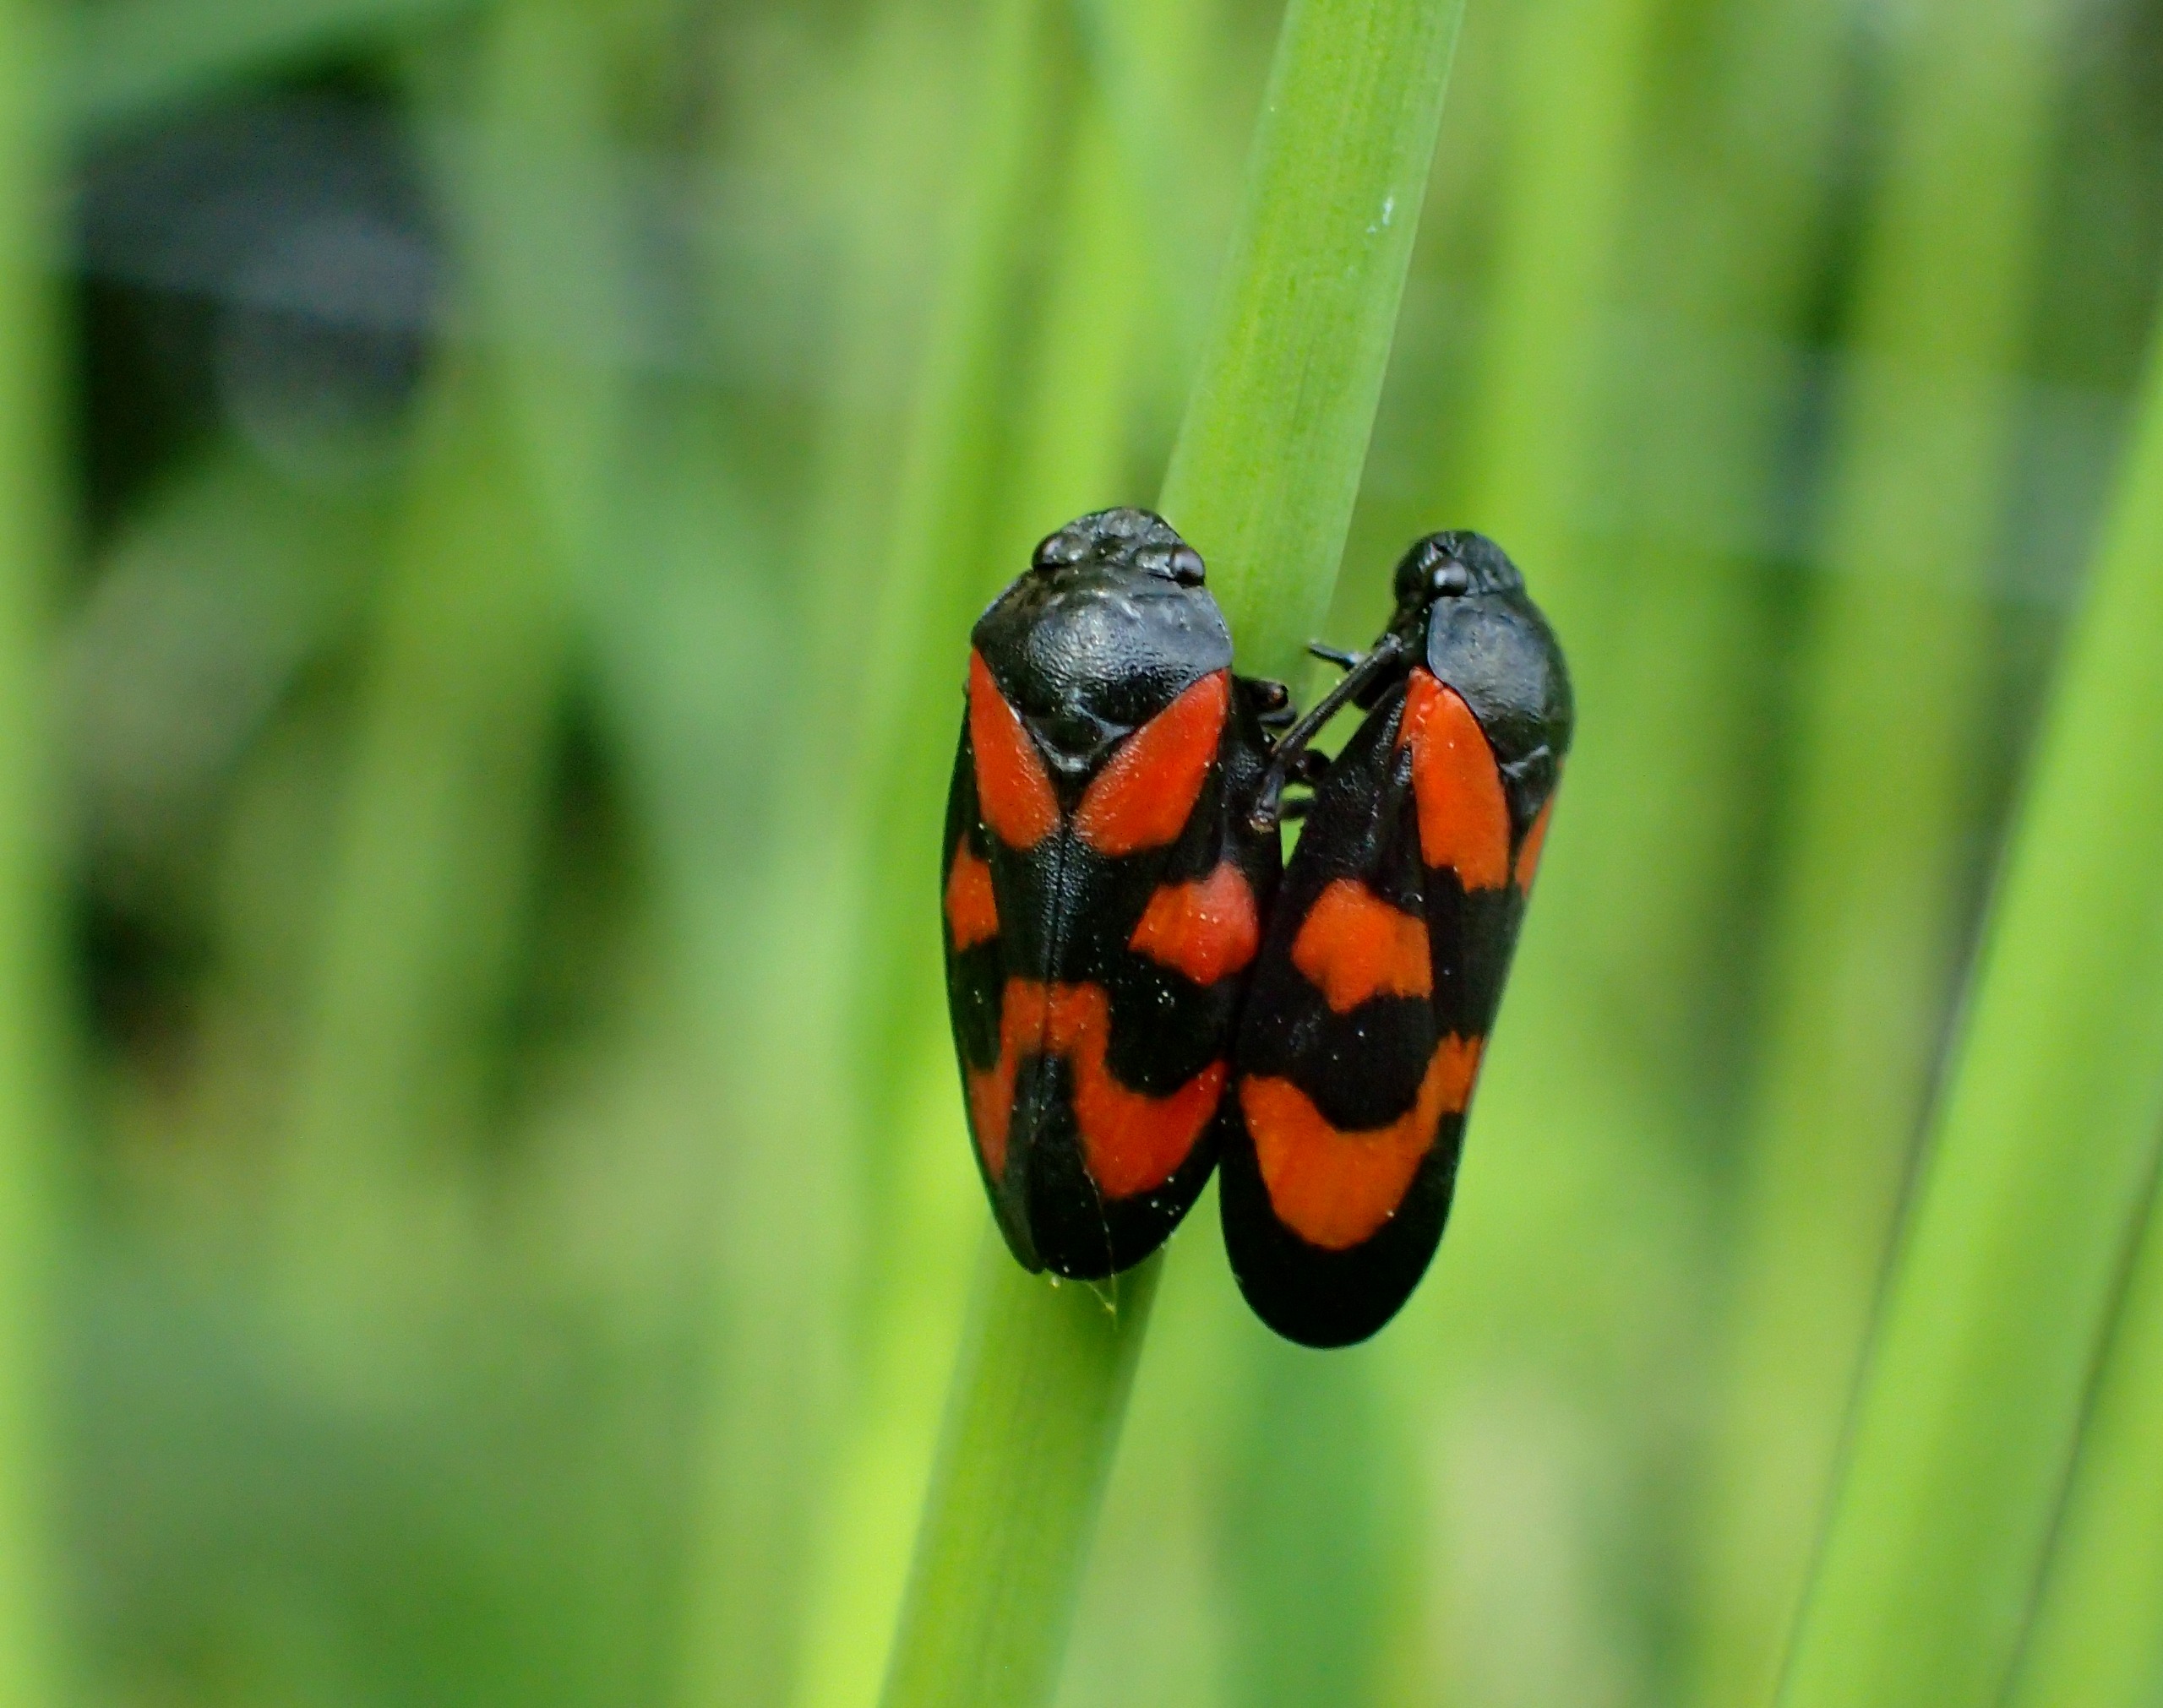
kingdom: Animalia
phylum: Arthropoda
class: Insecta
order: Hemiptera
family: Cercopidae
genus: Cercopis
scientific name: Cercopis vulnerata
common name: Blodcikade
